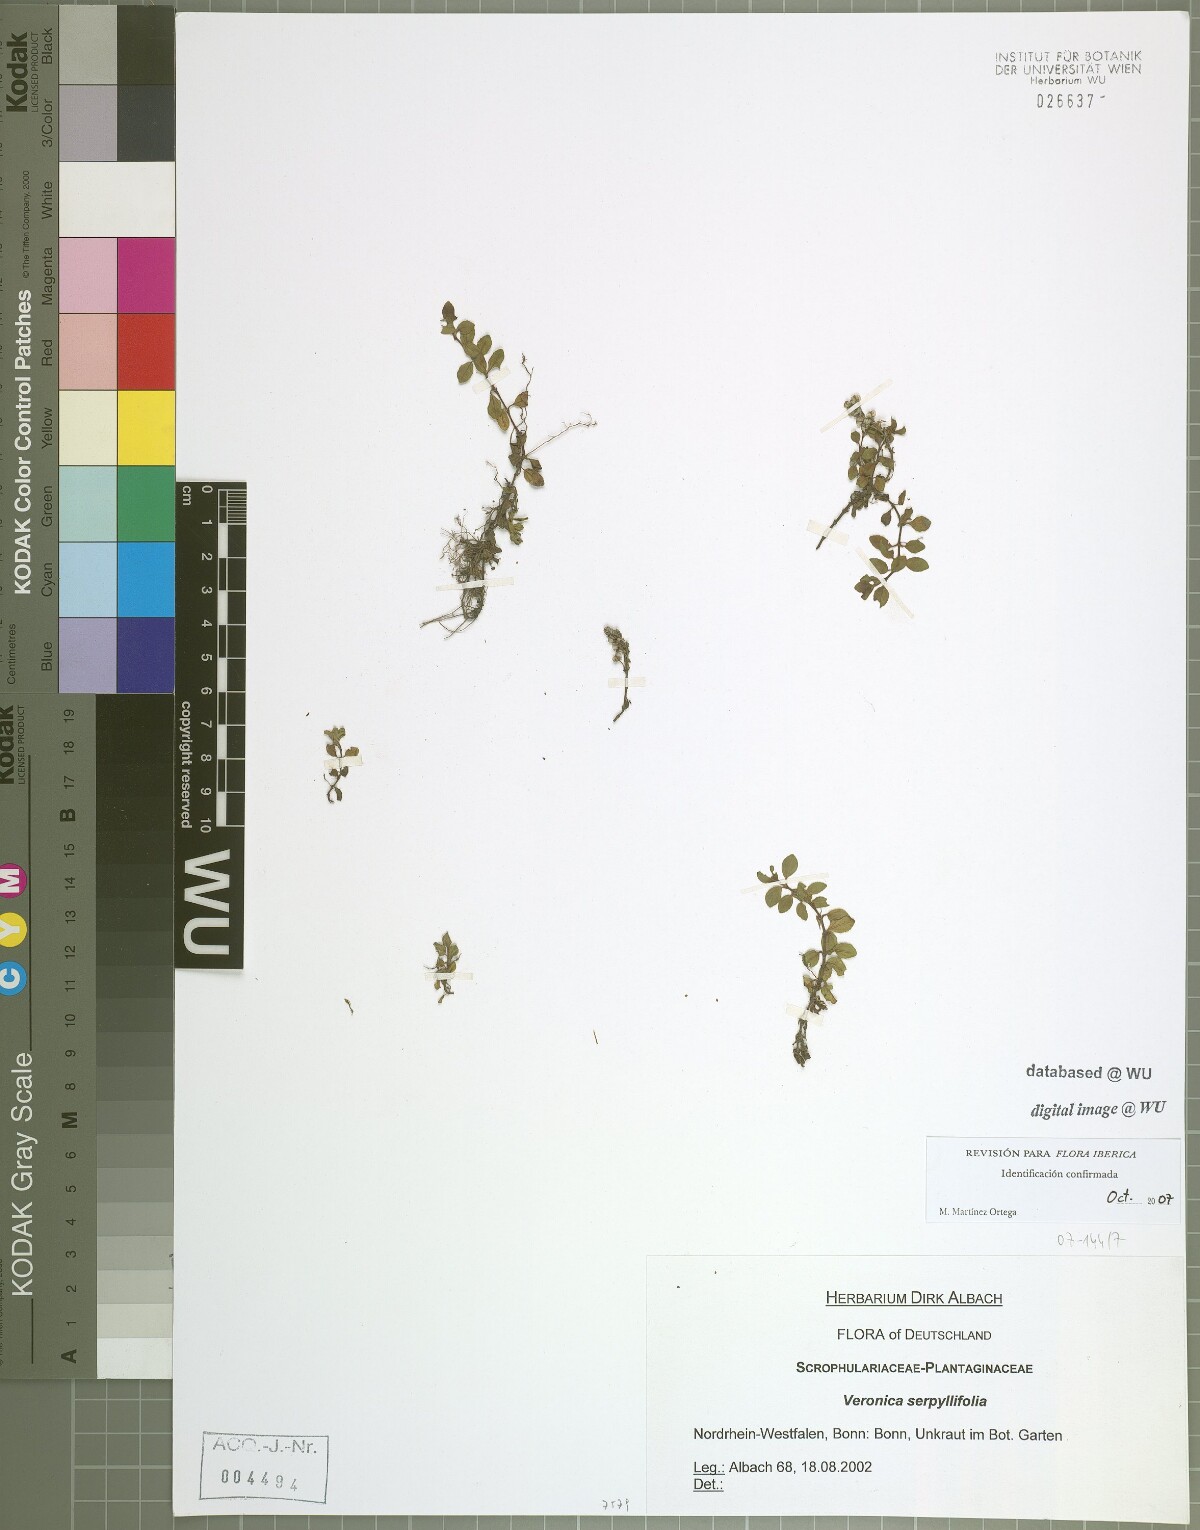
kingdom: Plantae
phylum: Tracheophyta
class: Magnoliopsida
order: Lamiales
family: Plantaginaceae
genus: Veronica
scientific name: Veronica serpyllifolia
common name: Thyme-leaved speedwell
